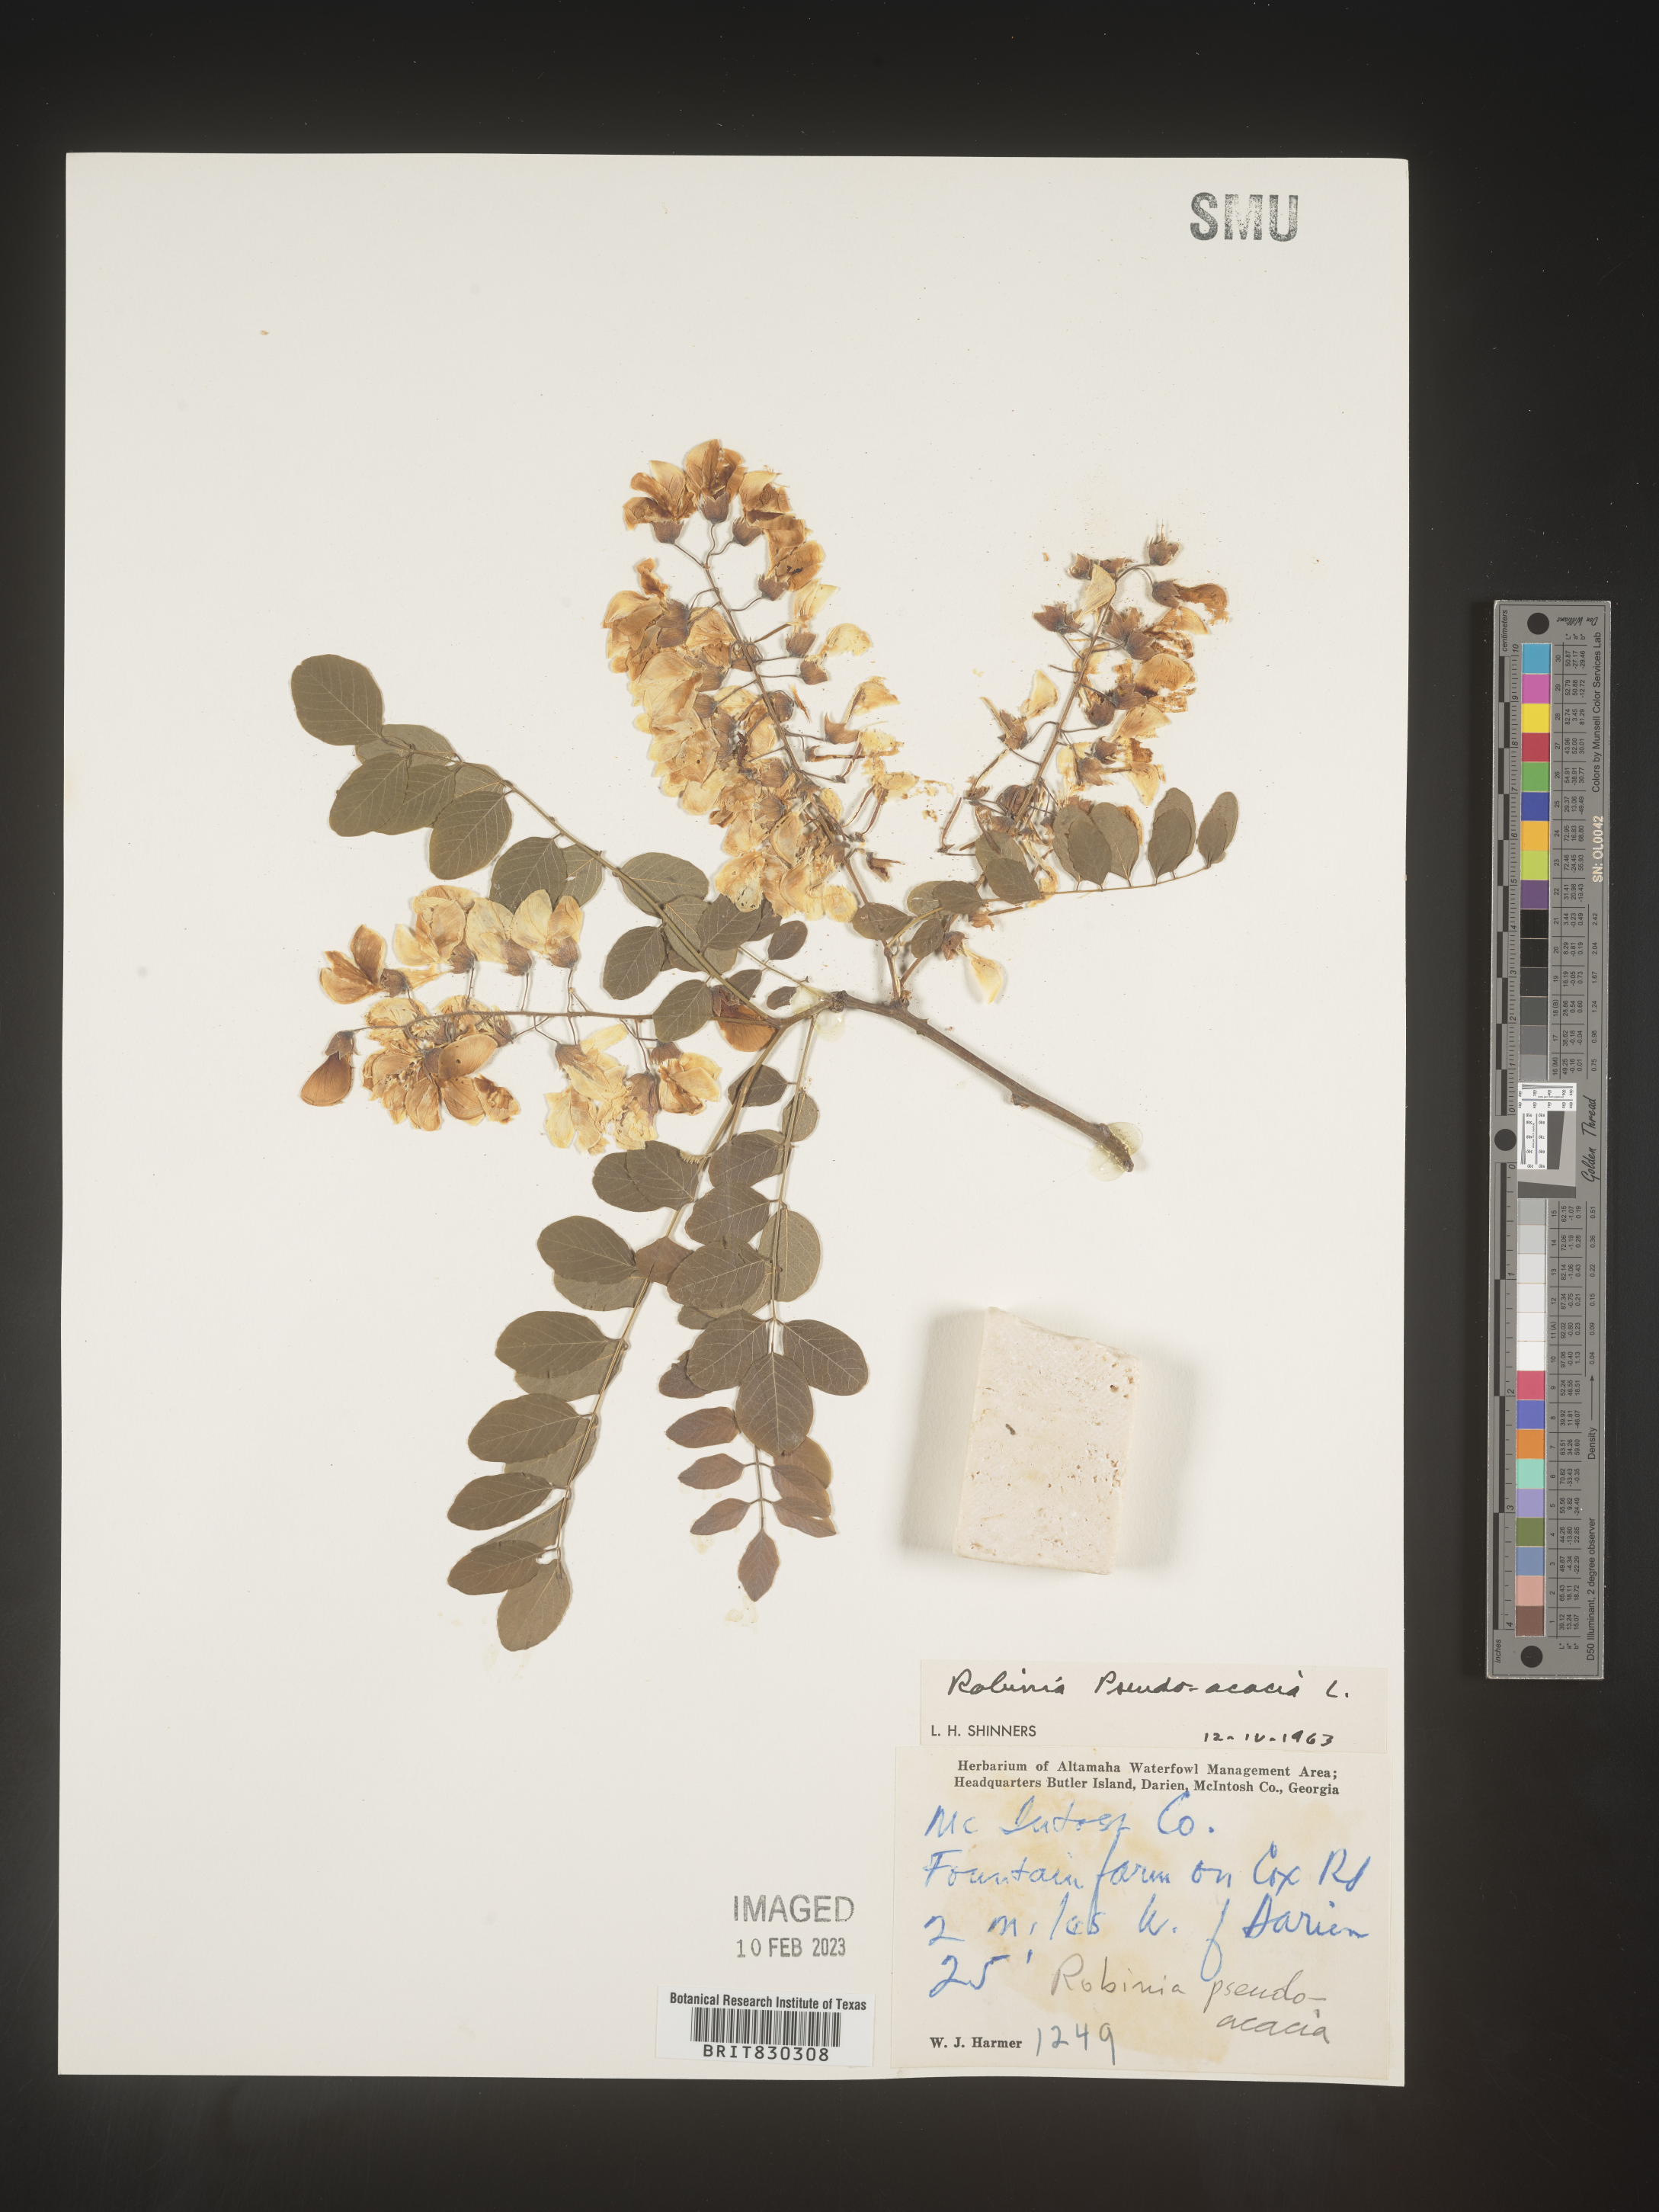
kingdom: Plantae
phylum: Tracheophyta
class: Magnoliopsida
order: Fabales
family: Fabaceae
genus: Robinia
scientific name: Robinia pseudoacacia
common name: Black locust
